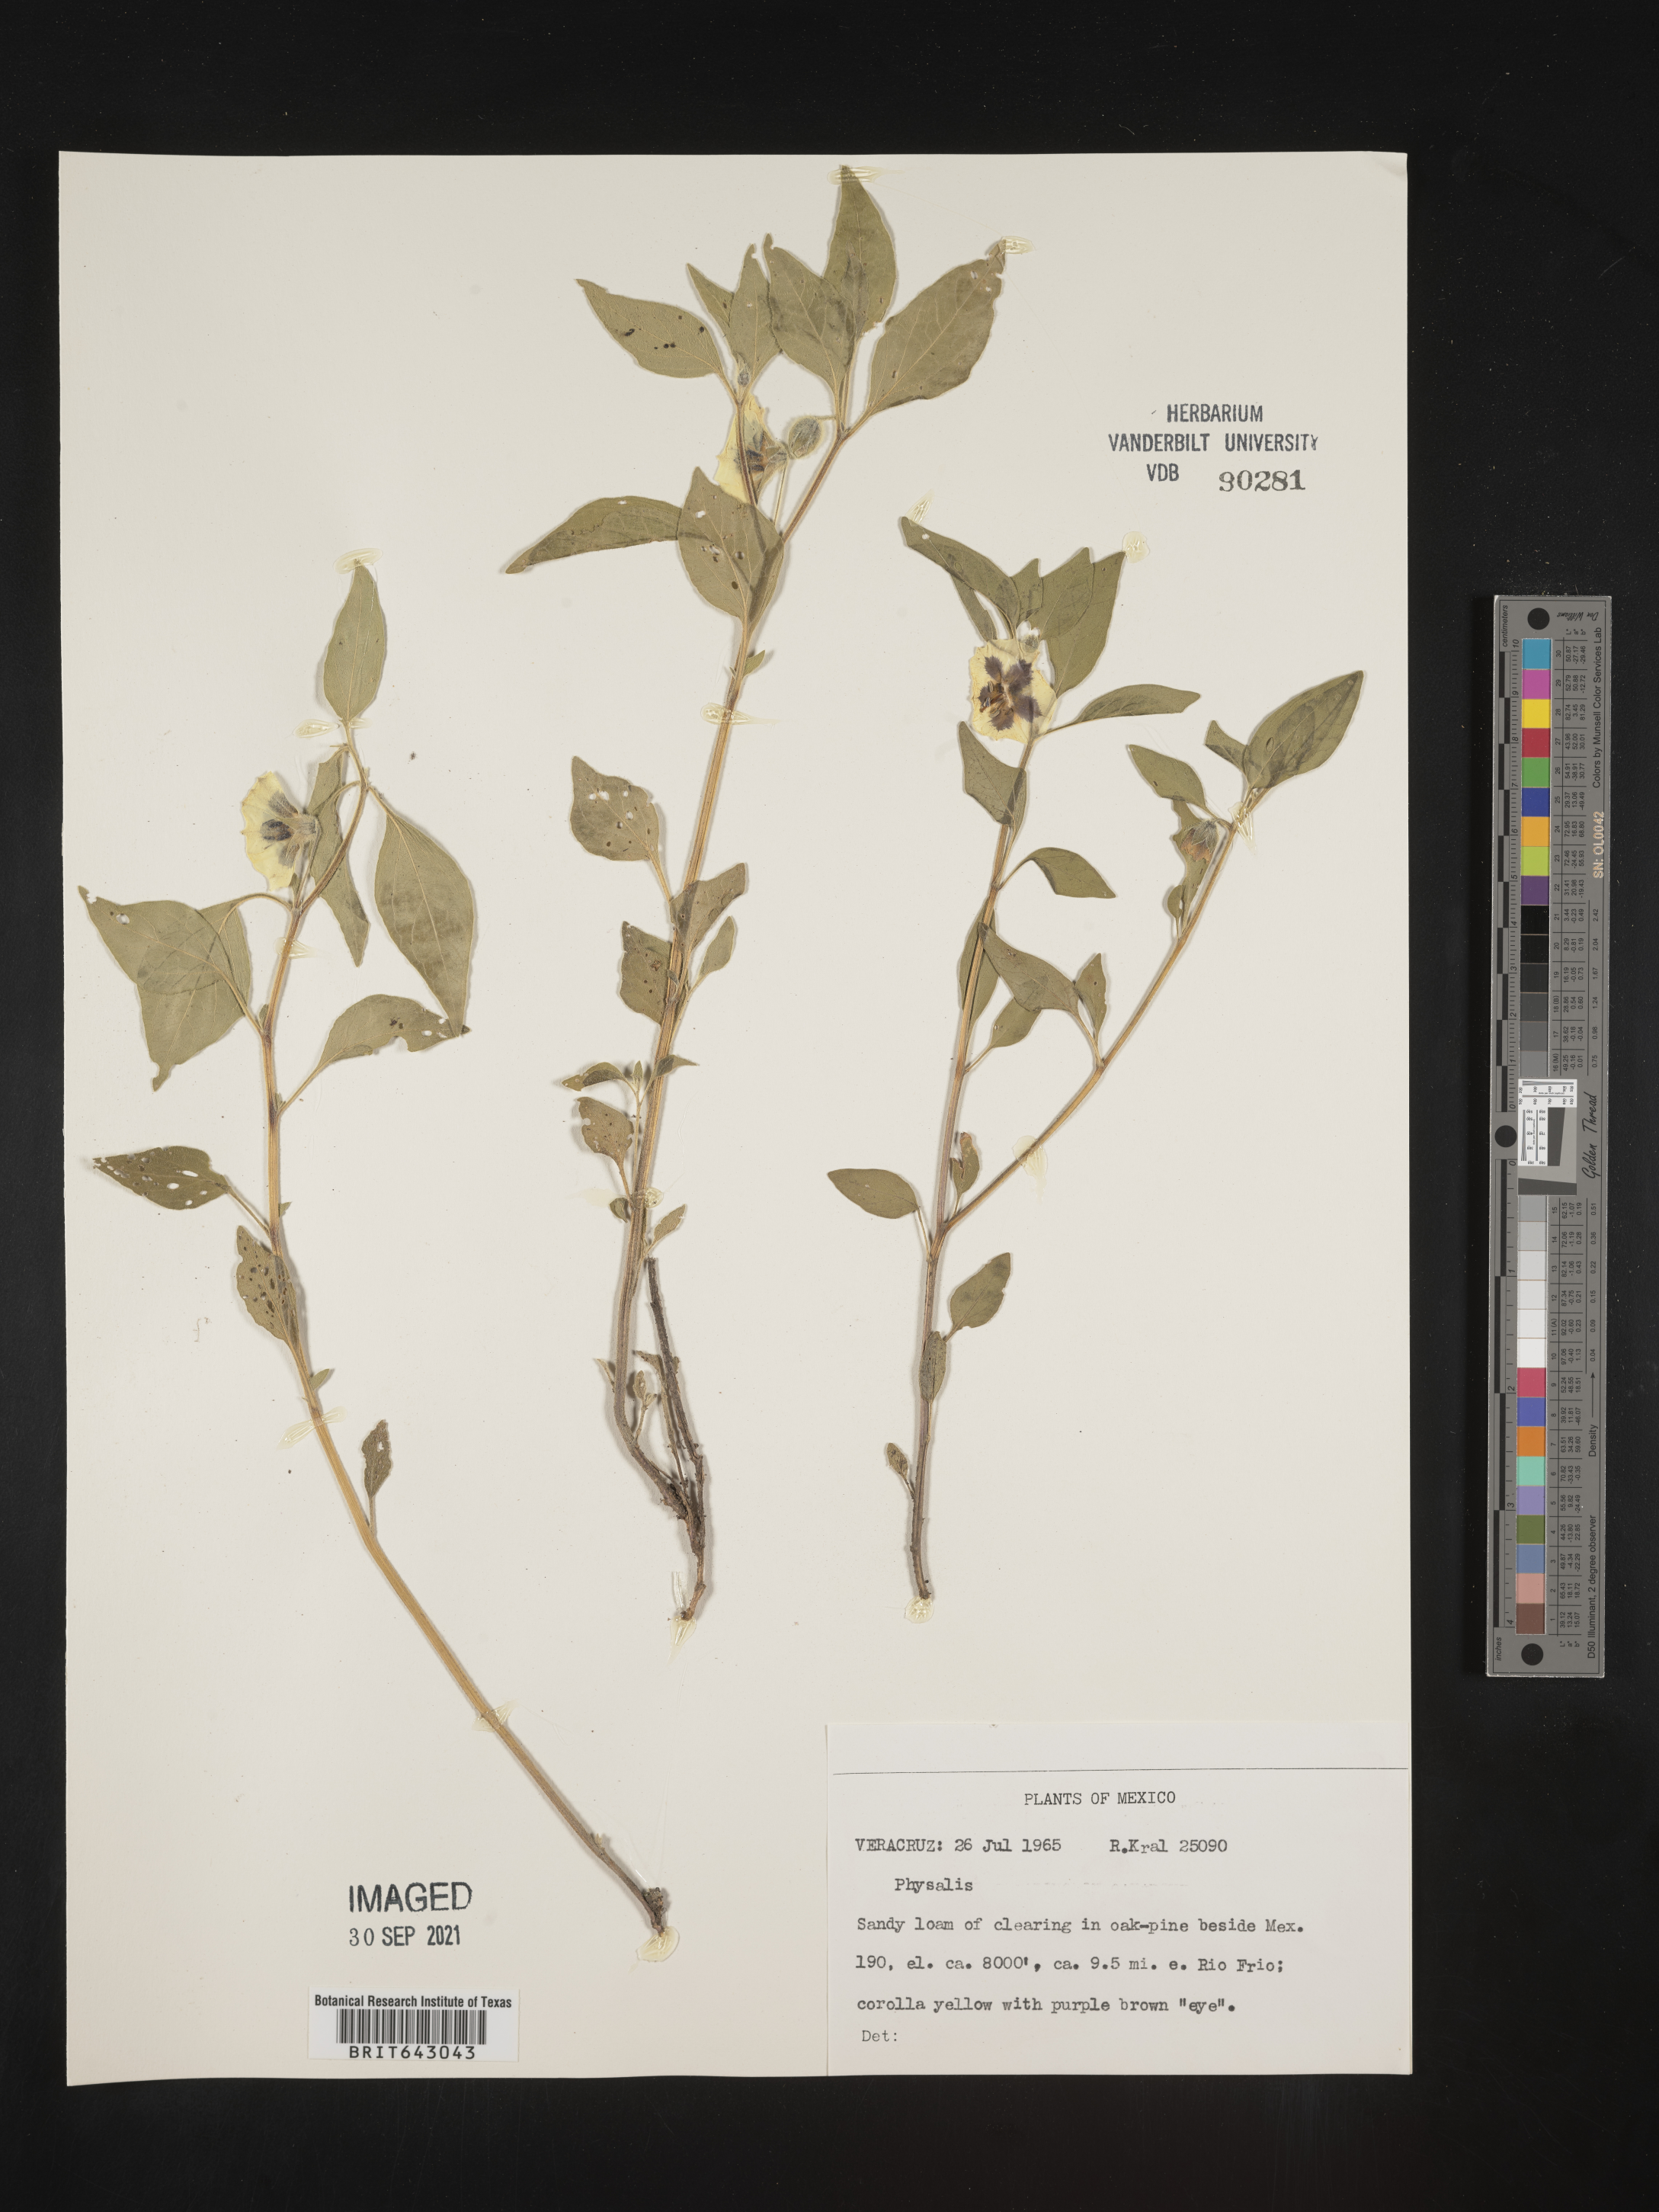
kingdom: Plantae
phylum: Tracheophyta
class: Magnoliopsida
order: Solanales
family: Solanaceae
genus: Physalis
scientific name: Physalis
